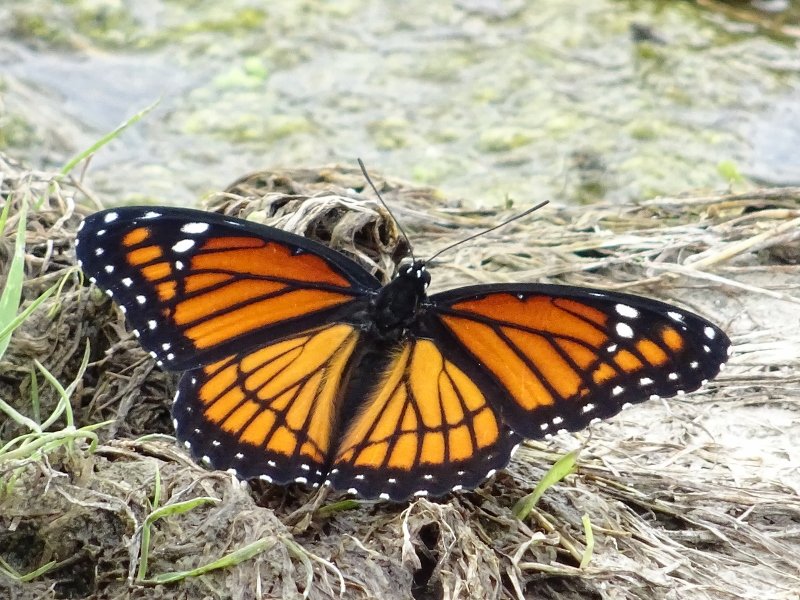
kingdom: Animalia
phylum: Arthropoda
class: Insecta
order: Lepidoptera
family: Nymphalidae
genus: Limenitis
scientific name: Limenitis archippus
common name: Viceroy
